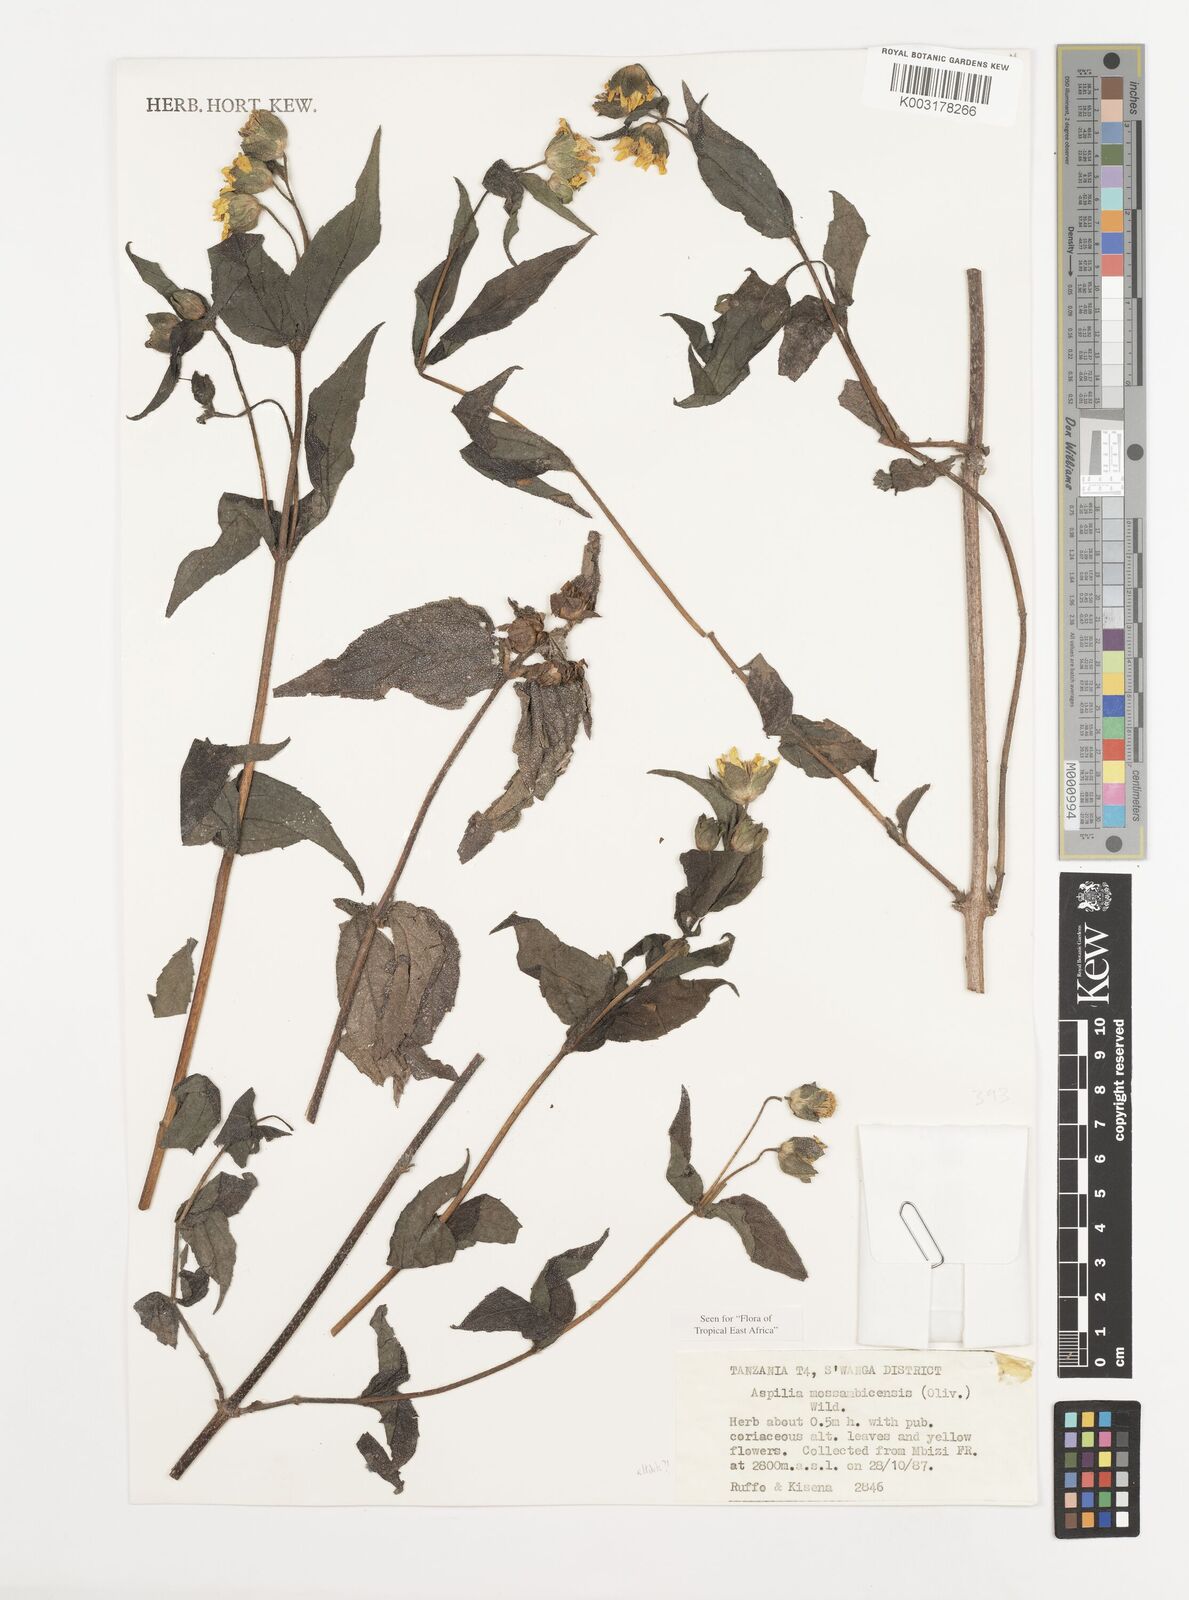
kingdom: Plantae
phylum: Tracheophyta
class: Magnoliopsida
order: Asterales
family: Asteraceae
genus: Aspilia
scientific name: Aspilia mossambicensis
